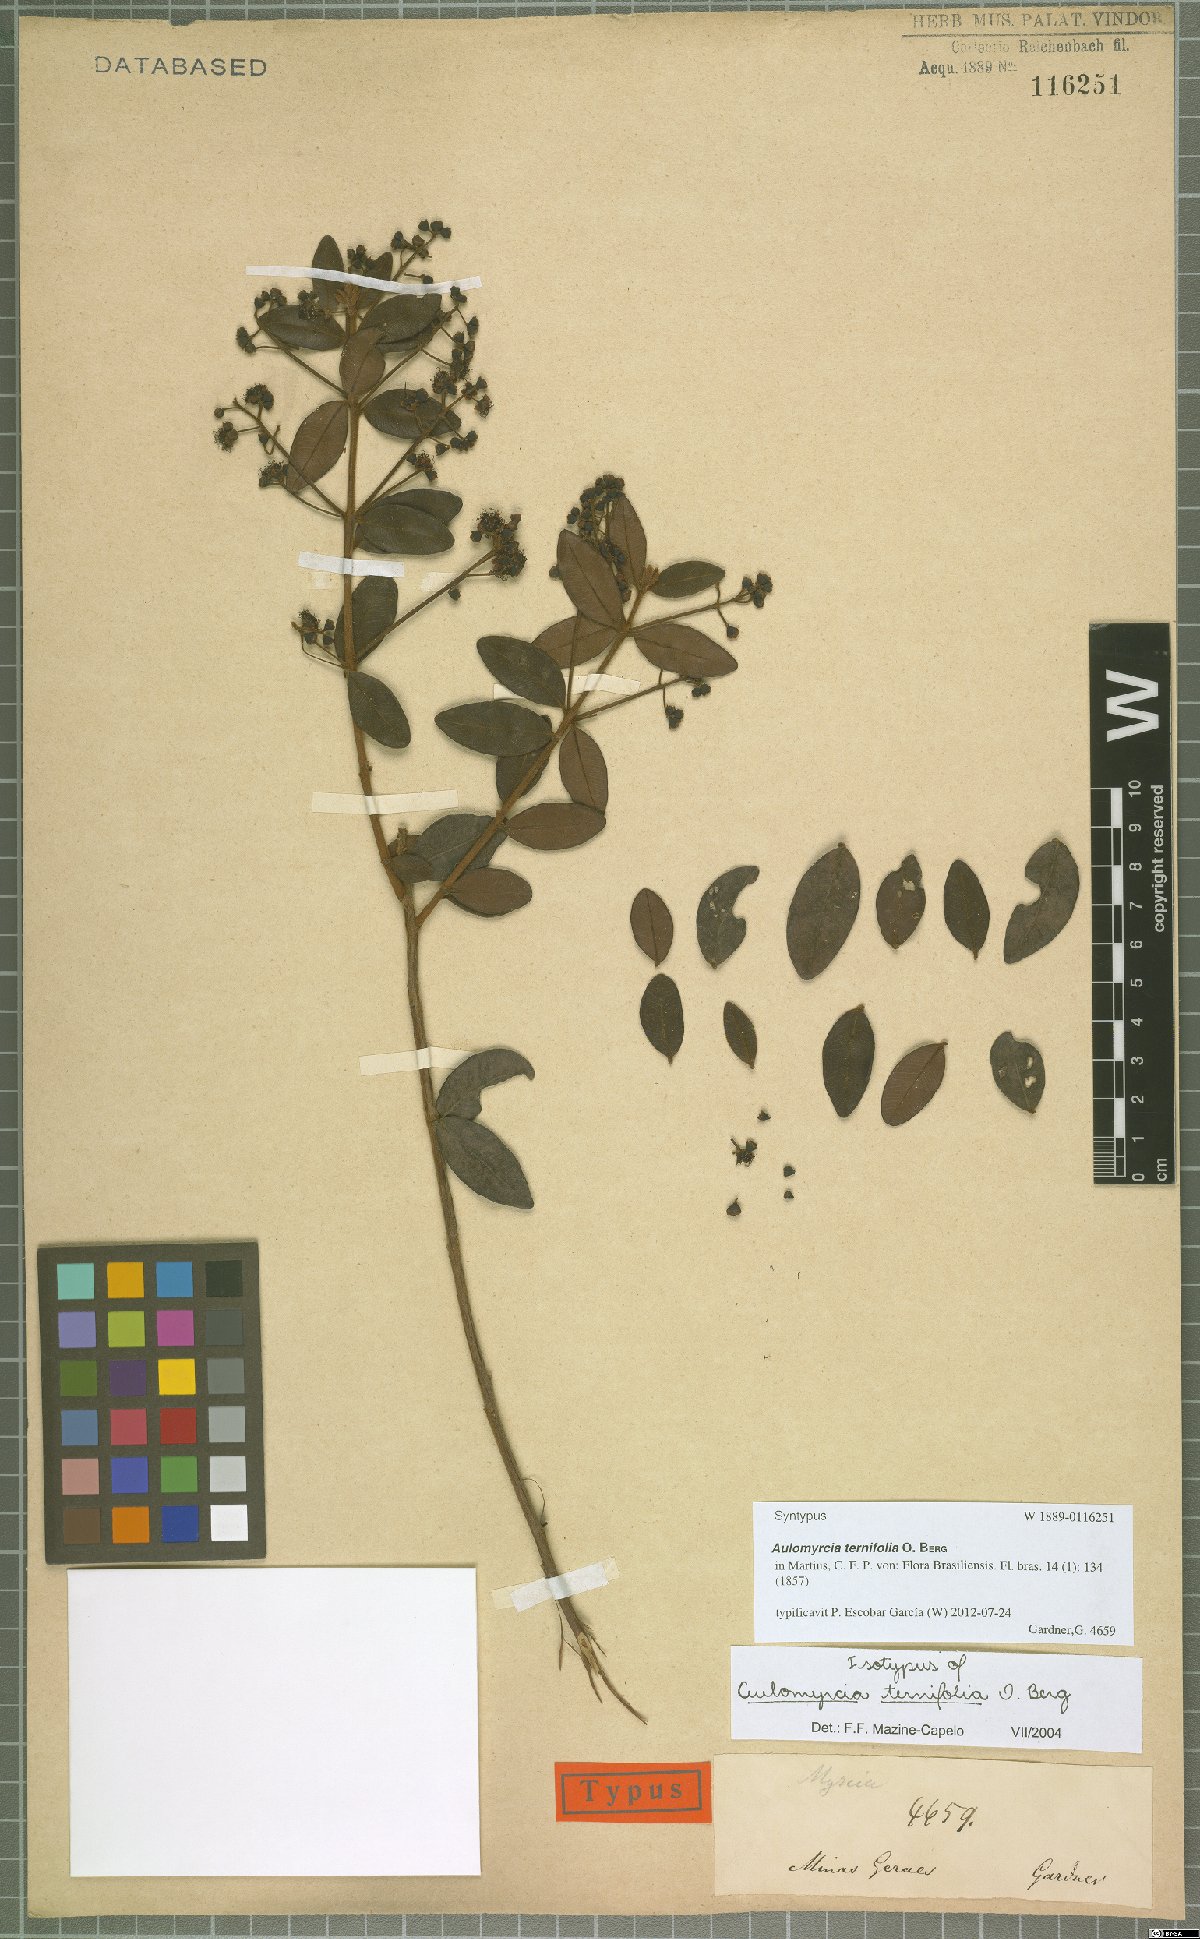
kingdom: Plantae
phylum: Tracheophyta
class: Magnoliopsida
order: Myrtales
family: Myrtaceae
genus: Myrcia
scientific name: Myrcia rufipes
